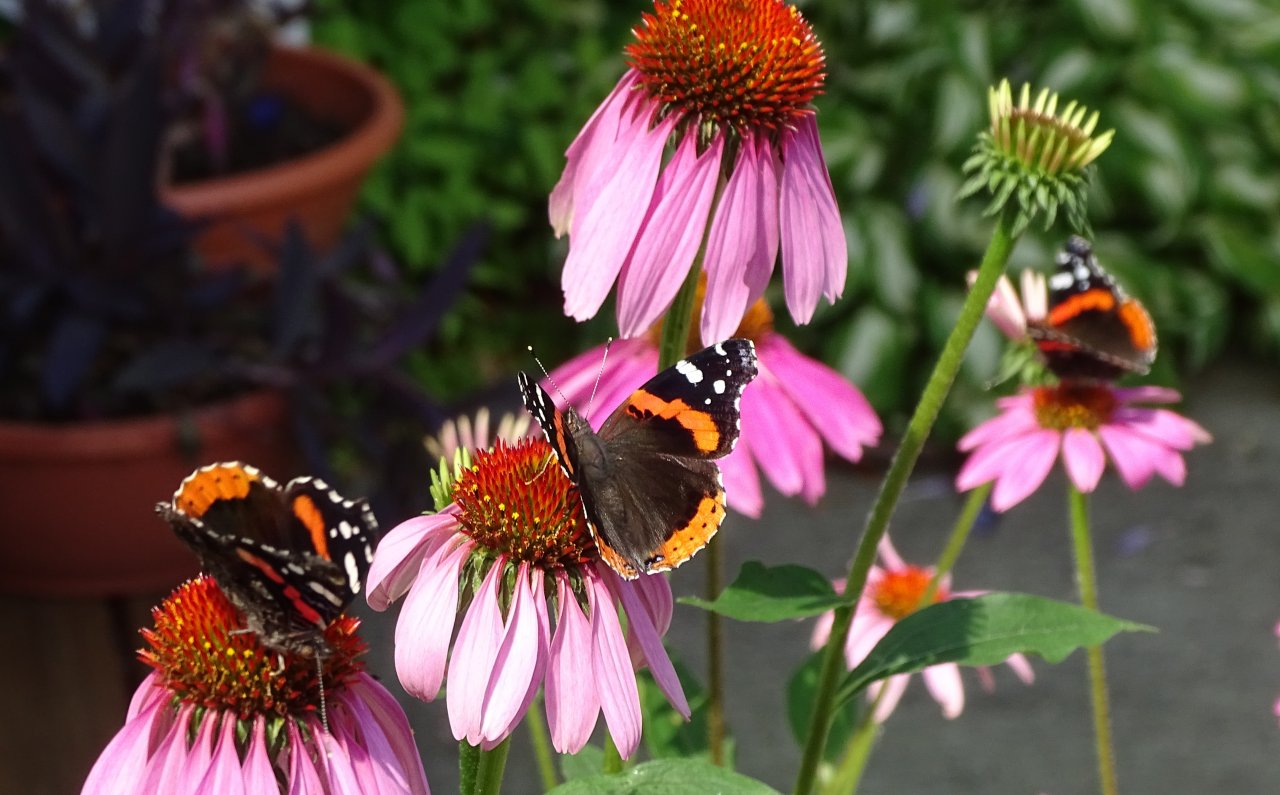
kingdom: Animalia
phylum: Arthropoda
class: Insecta
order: Lepidoptera
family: Nymphalidae
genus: Vanessa
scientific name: Vanessa atalanta
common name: Red Admiral
